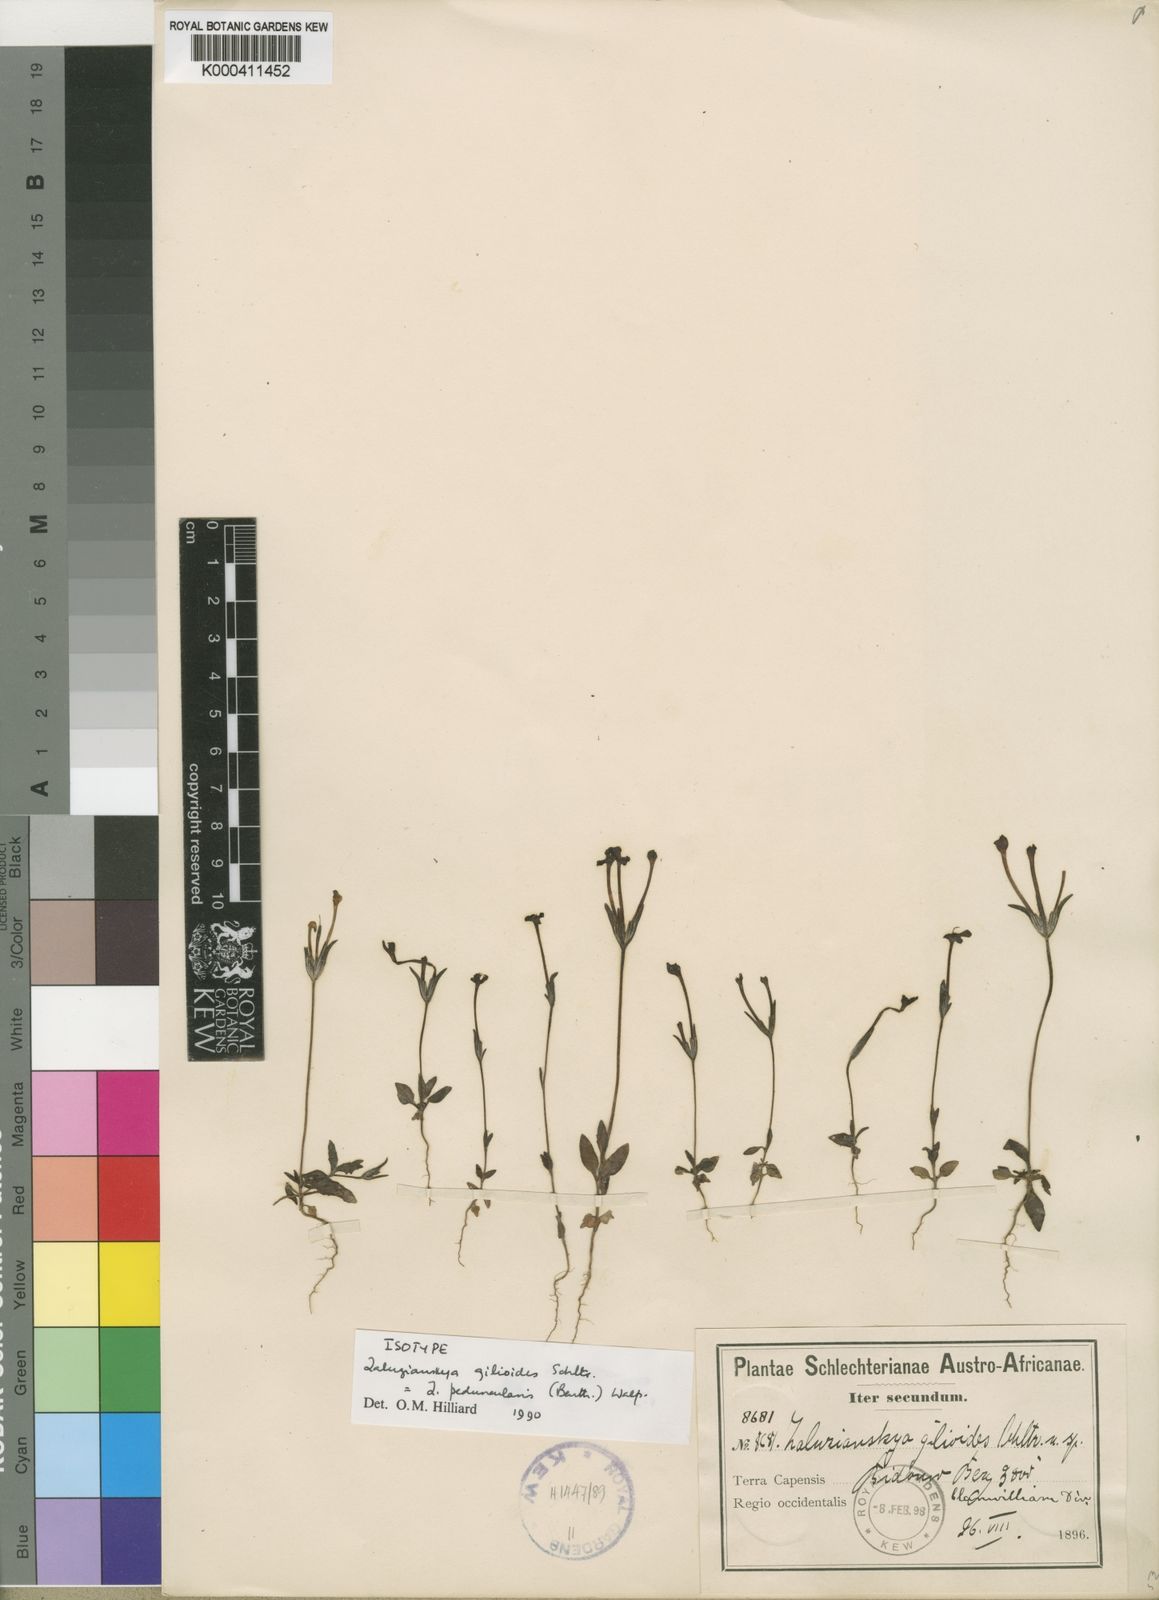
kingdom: Plantae
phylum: Tracheophyta
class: Magnoliopsida
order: Lamiales
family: Scrophulariaceae
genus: Zaluzianskya
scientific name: Zaluzianskya peduncularis
